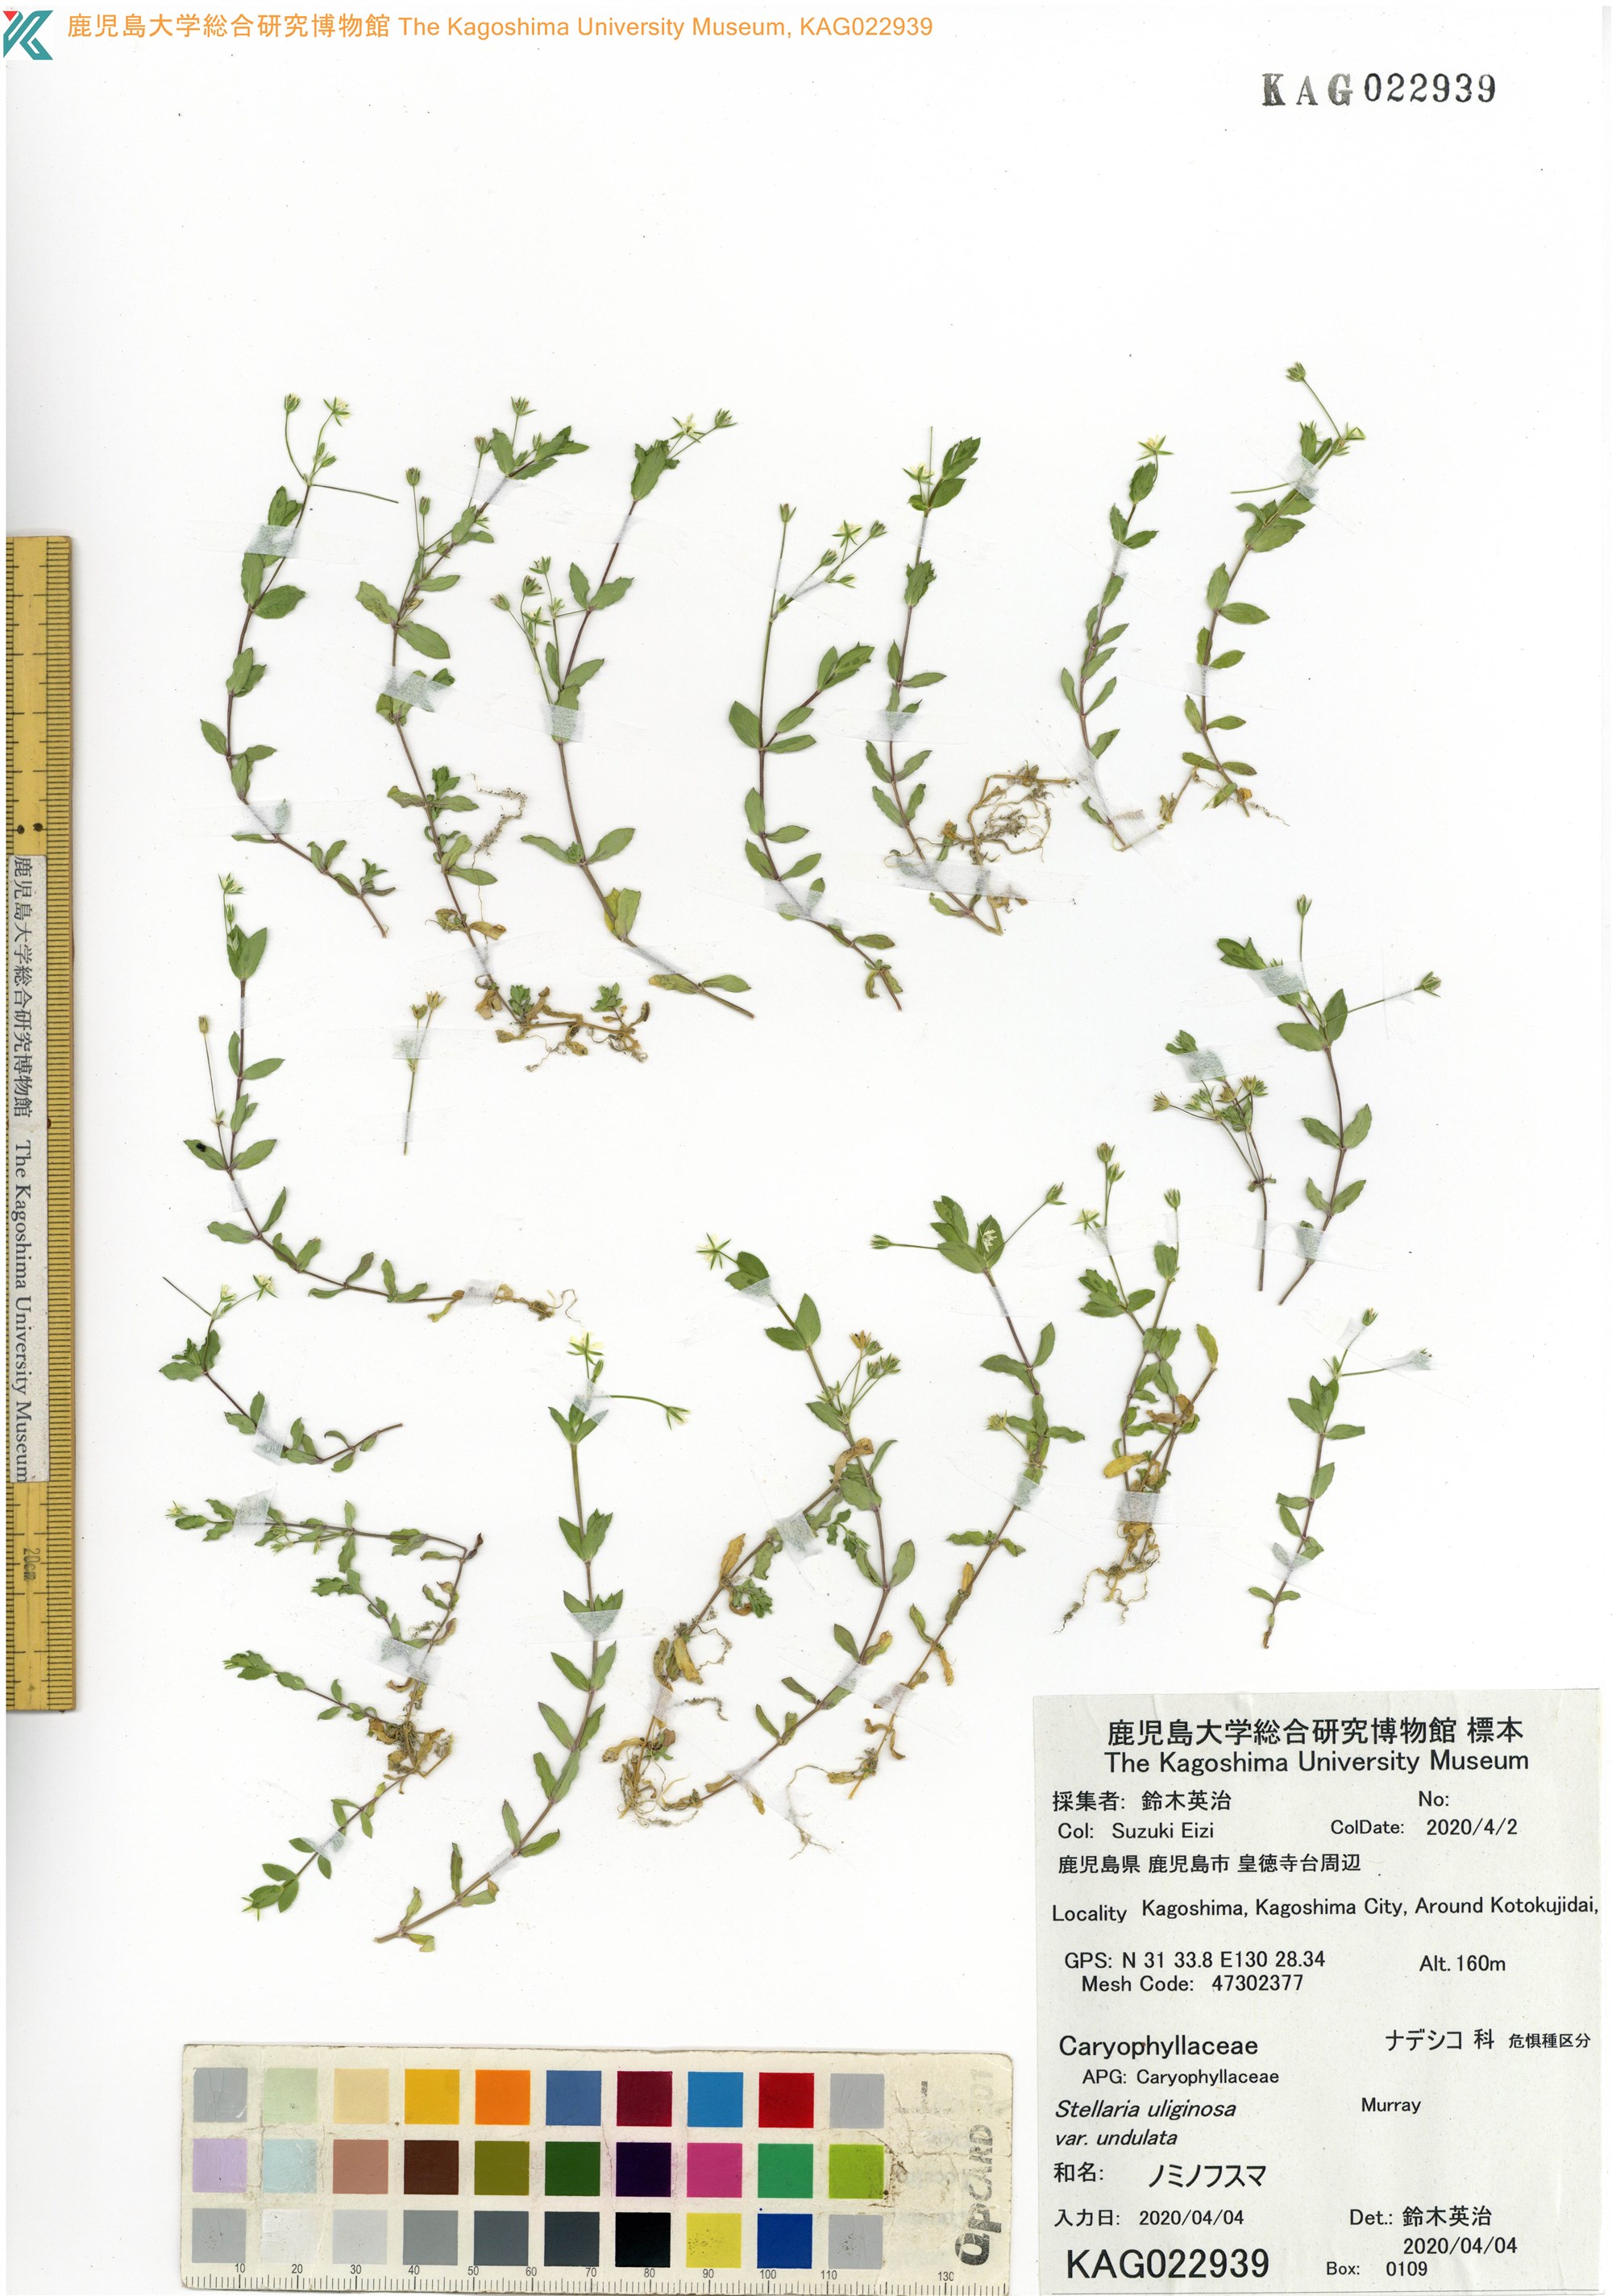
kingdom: Plantae
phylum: Tracheophyta
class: Magnoliopsida
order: Caryophyllales
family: Caryophyllaceae
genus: Stellaria
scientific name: Stellaria alsine
